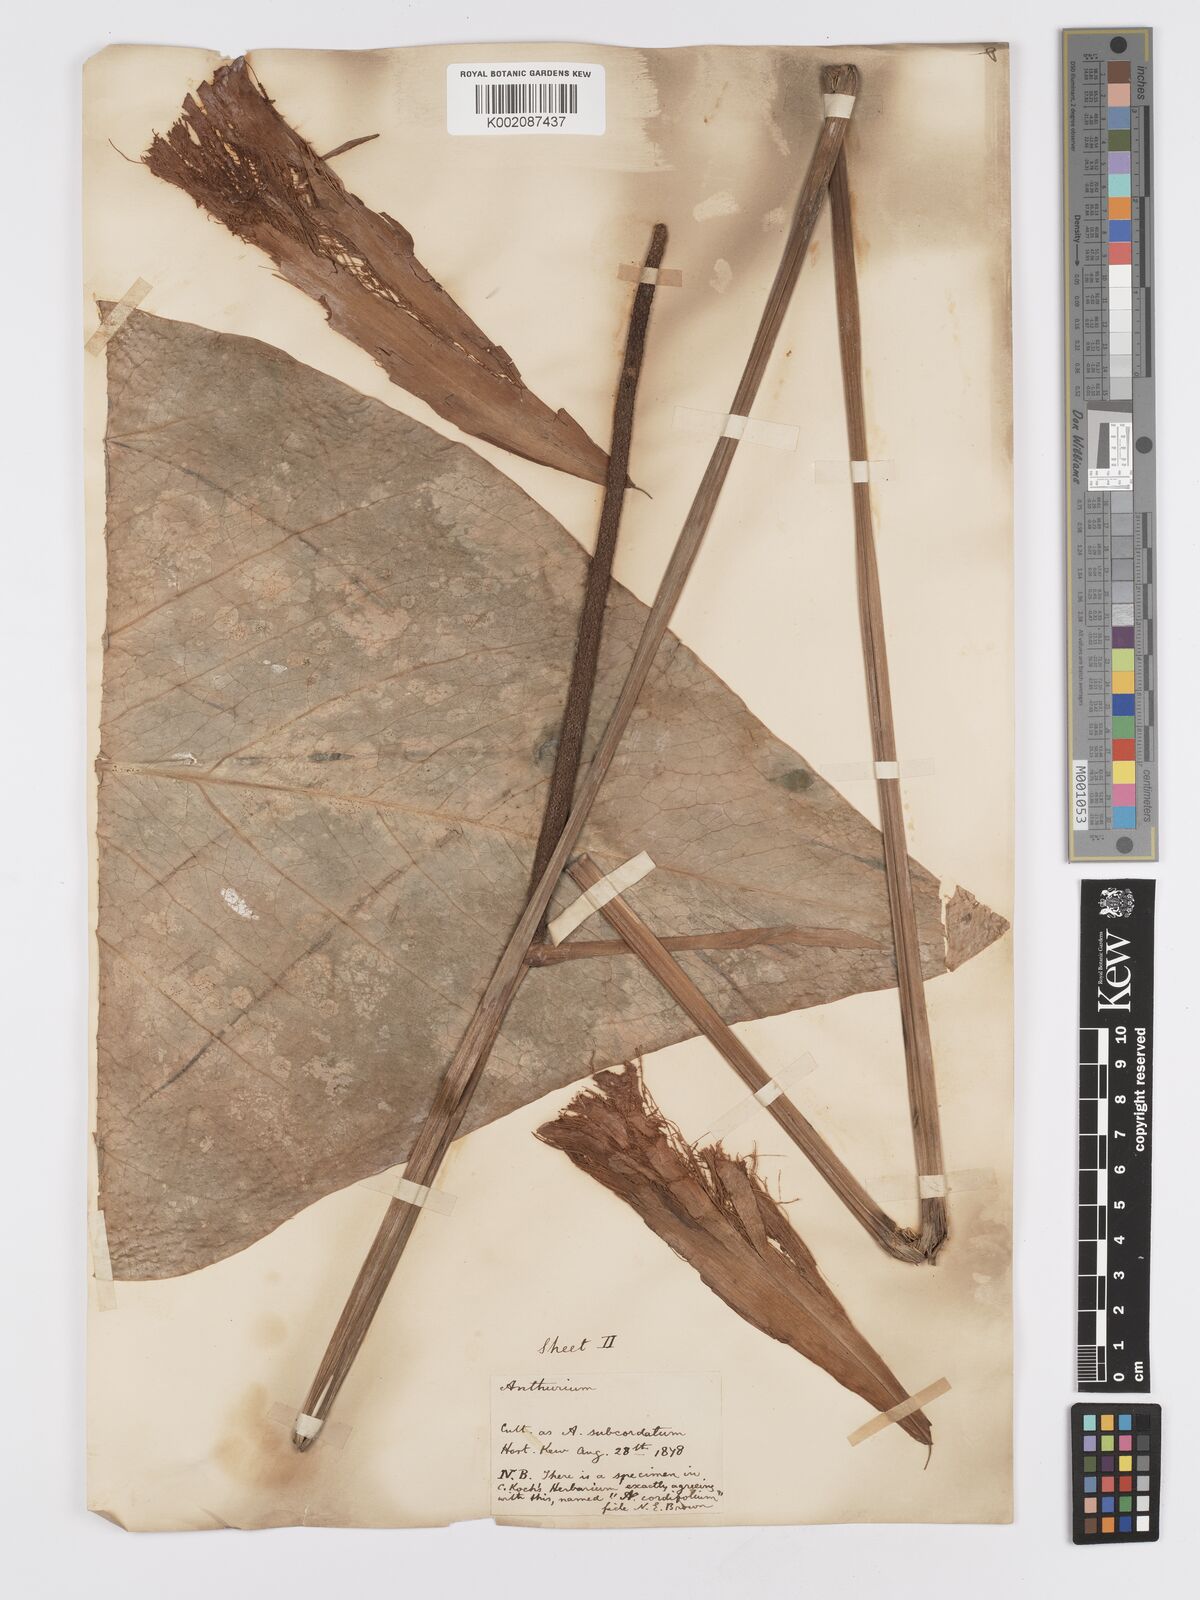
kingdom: Plantae
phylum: Tracheophyta
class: Liliopsida
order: Alismatales
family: Araceae
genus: Anthurium
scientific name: Anthurium
